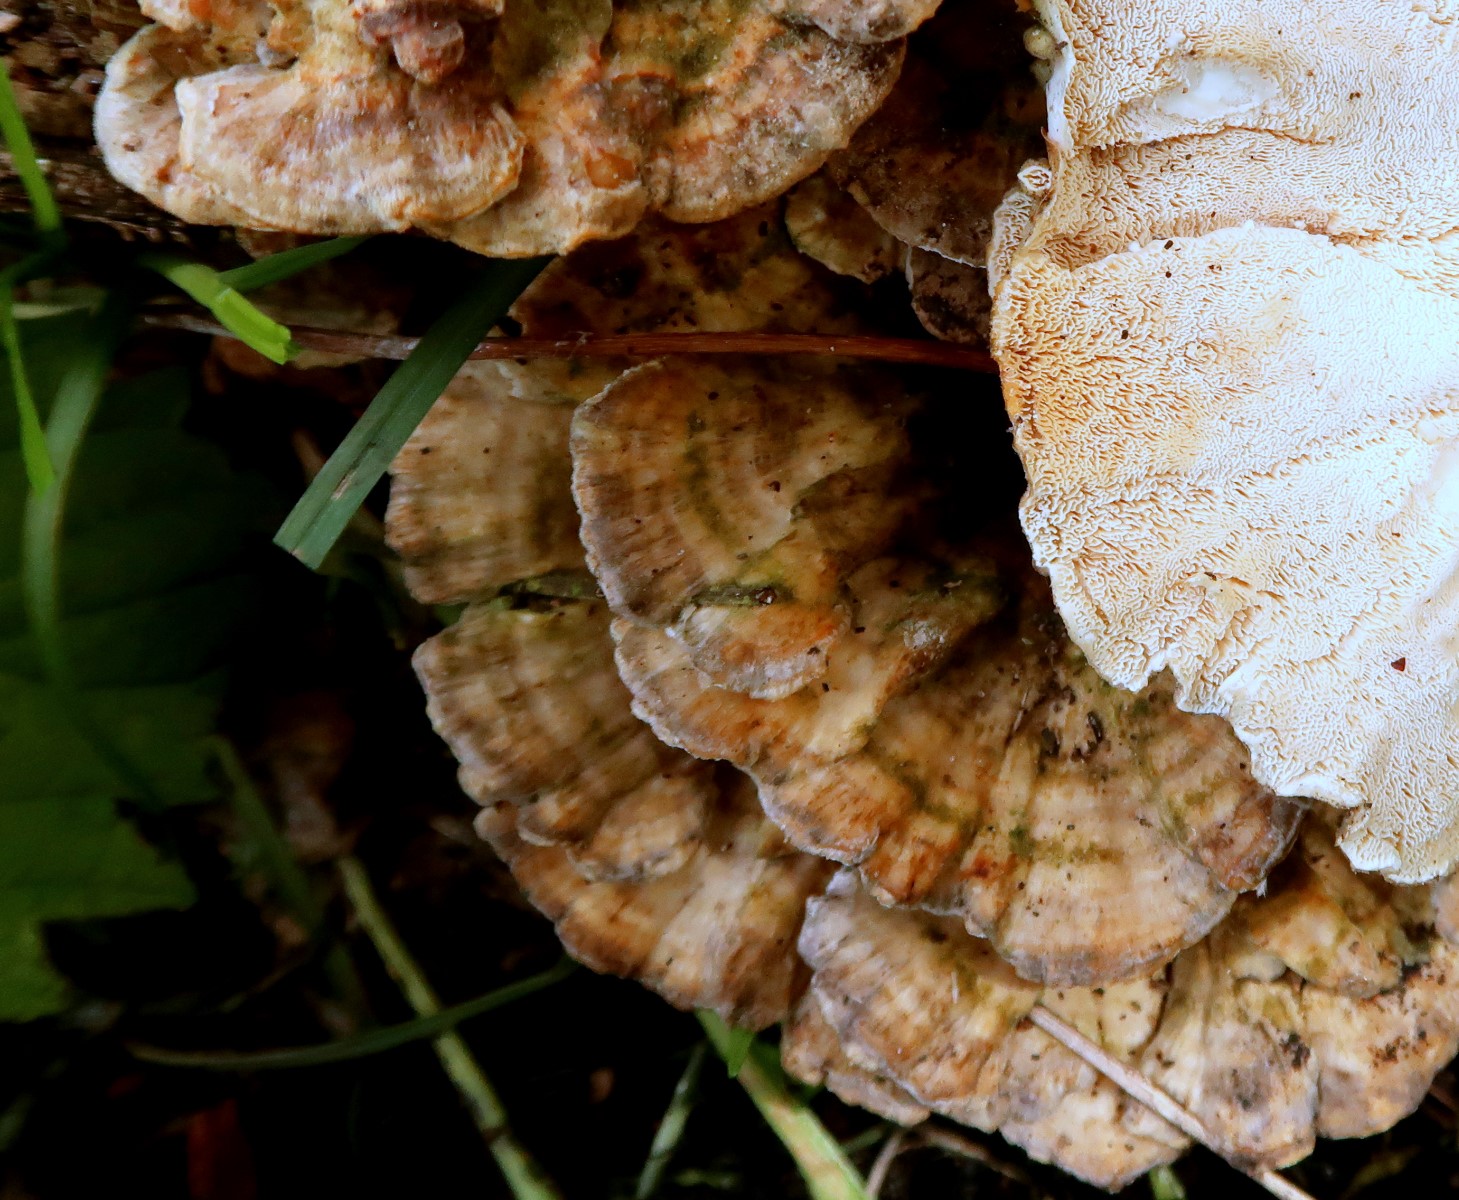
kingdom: Fungi
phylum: Basidiomycota
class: Agaricomycetes
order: Polyporales
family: Polyporaceae
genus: Trametes
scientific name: Trametes ochracea
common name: bæltet læderporesvamp
